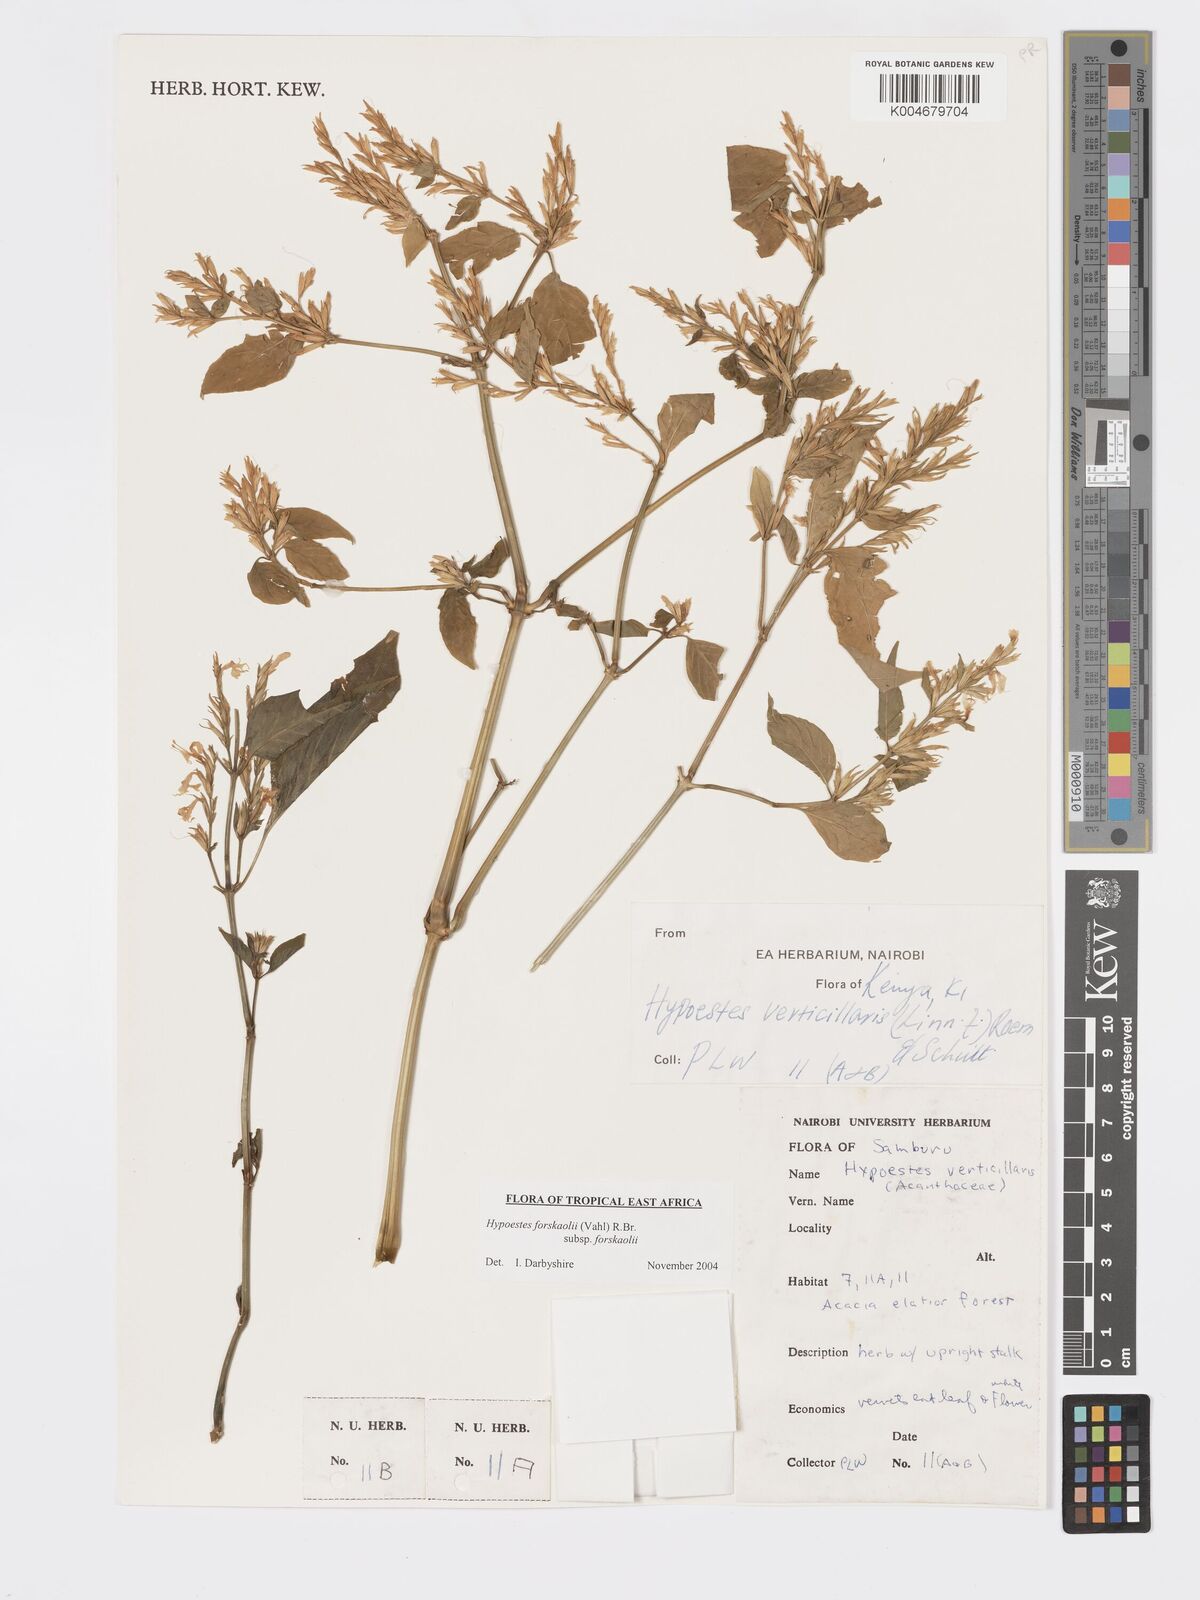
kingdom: Plantae
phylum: Tracheophyta
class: Magnoliopsida
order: Lamiales
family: Acanthaceae
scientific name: Acanthaceae
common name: Acanthaceae
